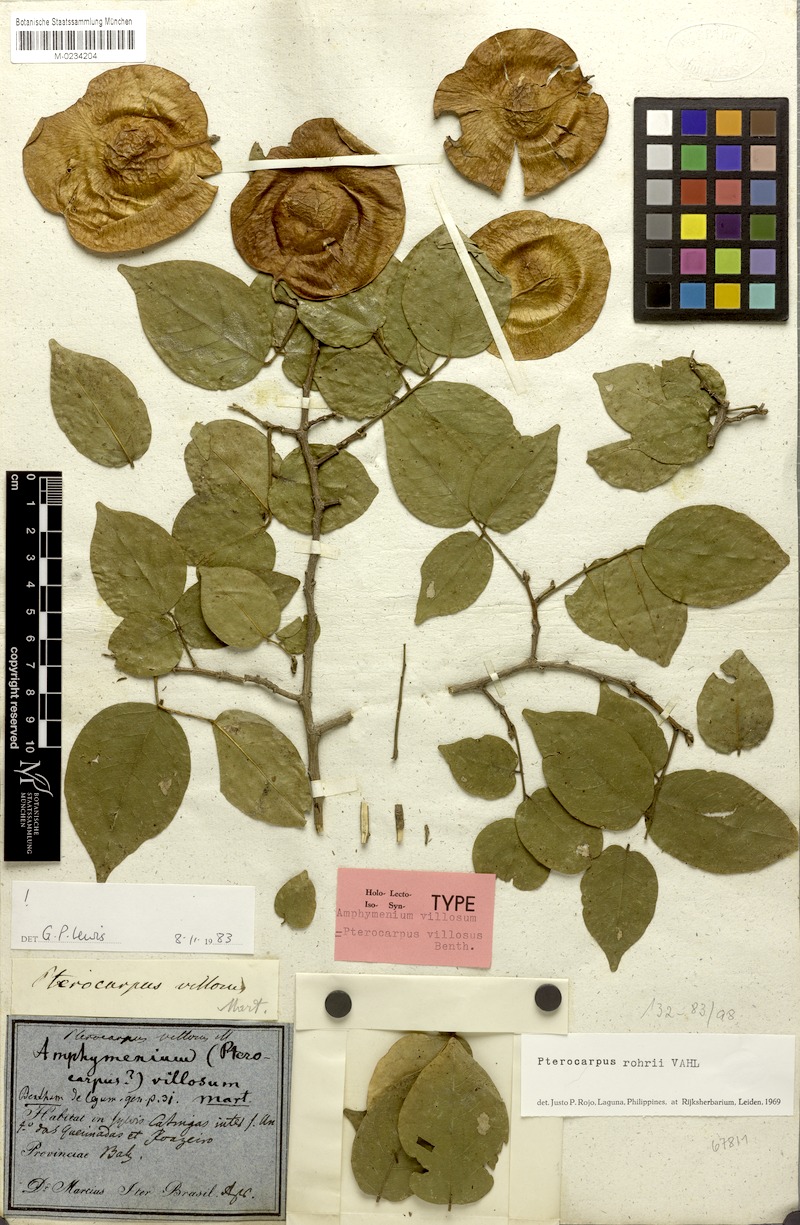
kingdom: Plantae
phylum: Tracheophyta
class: Magnoliopsida
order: Fabales
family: Fabaceae
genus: Pterocarpus
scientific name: Pterocarpus villosus
